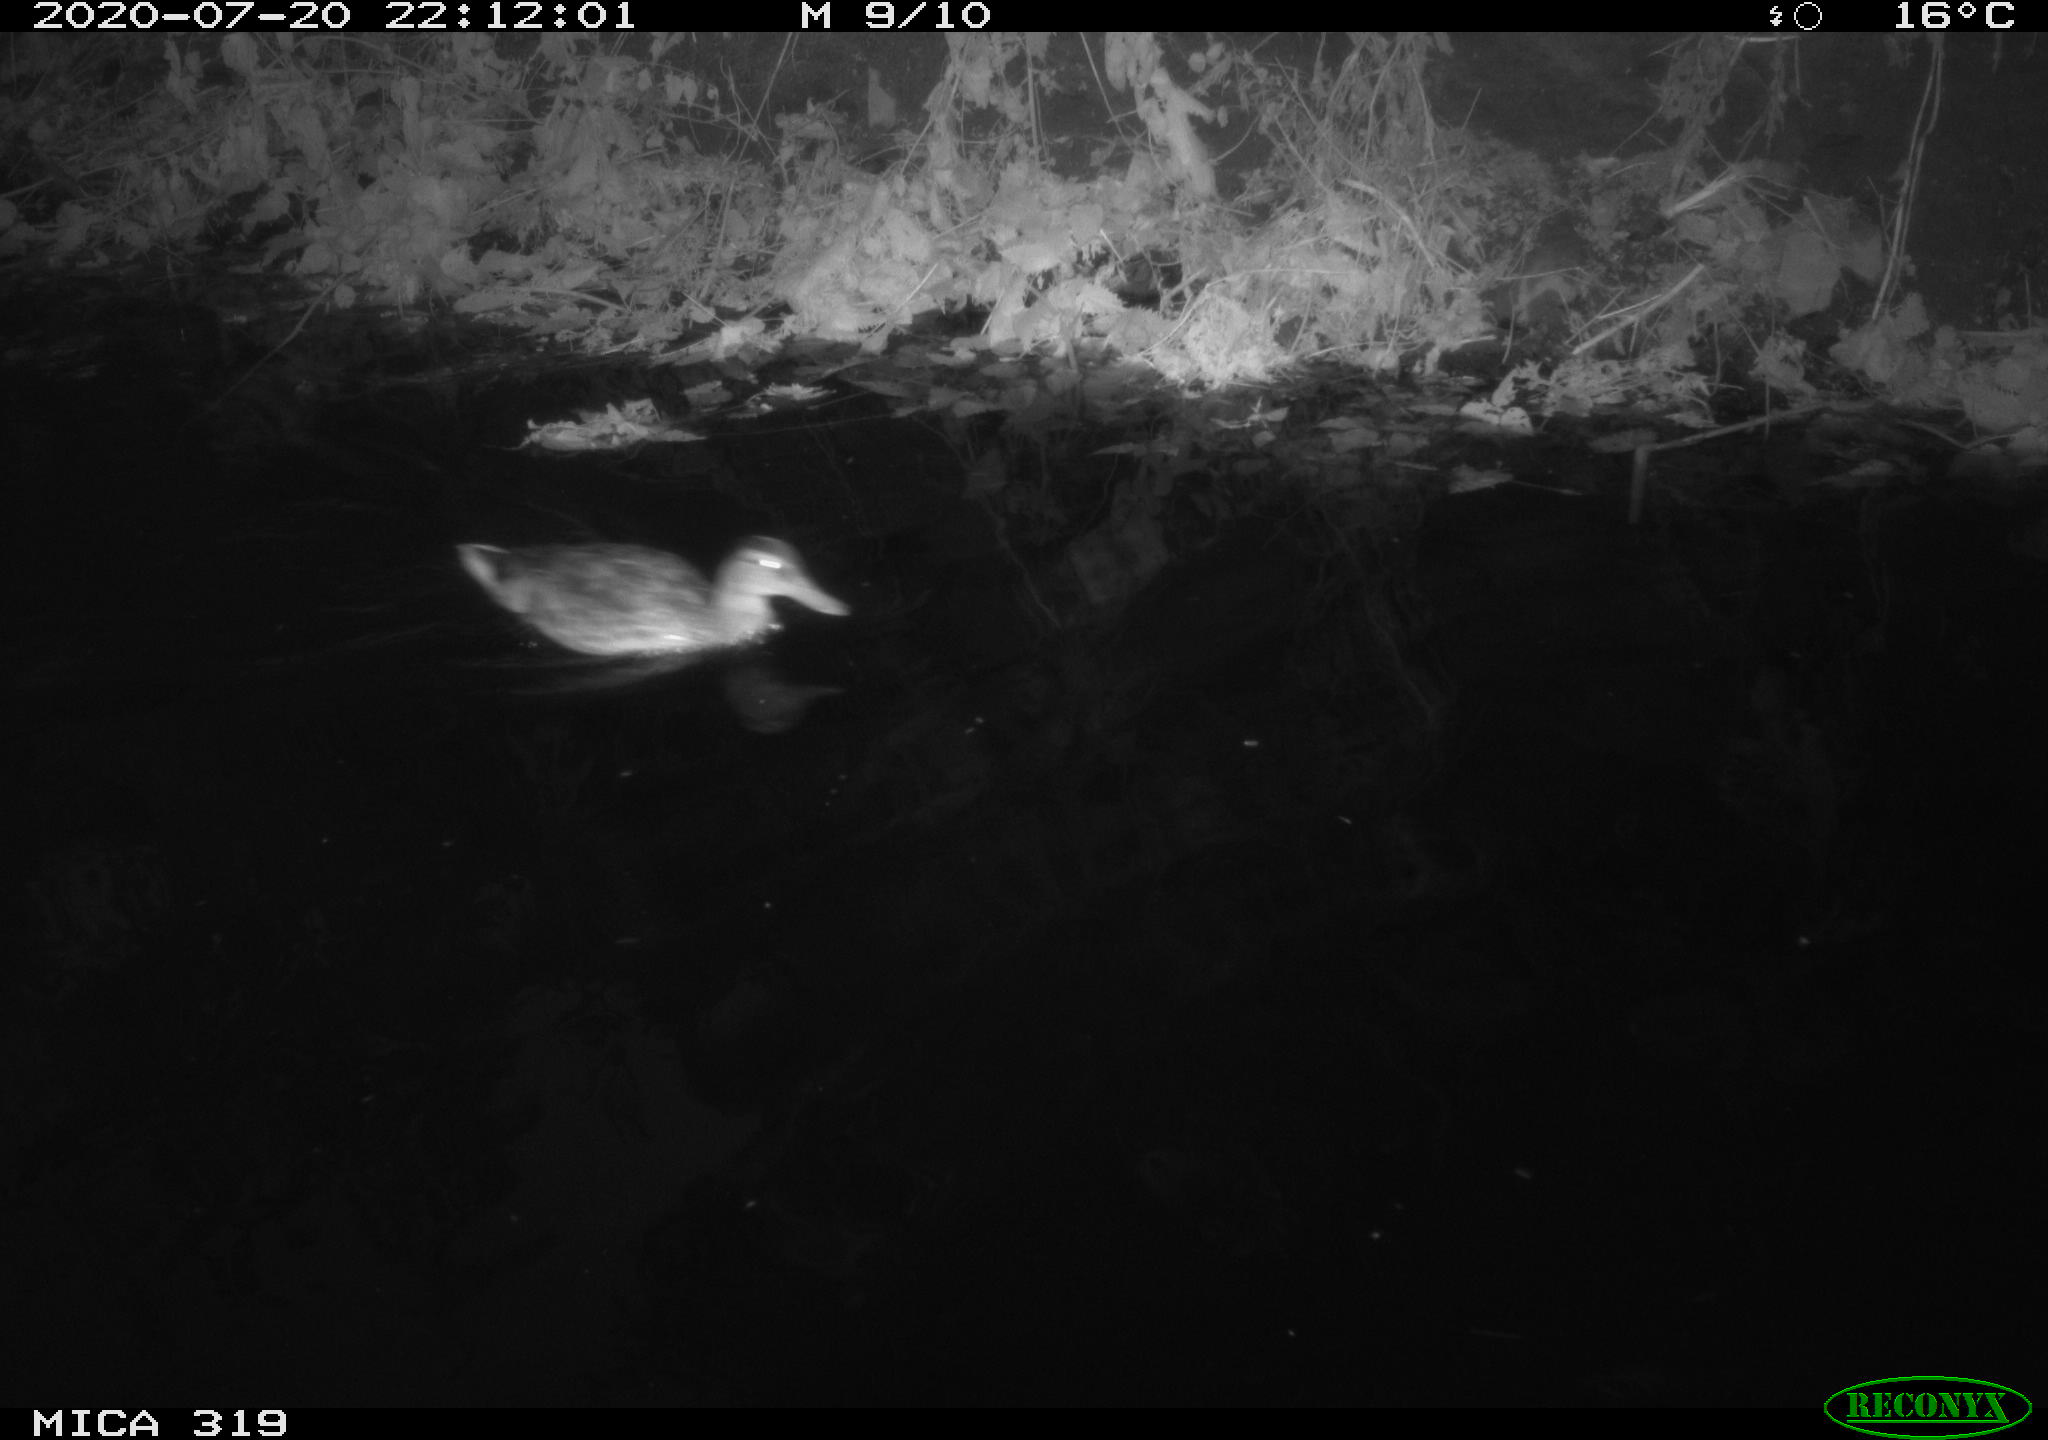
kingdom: Animalia
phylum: Chordata
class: Aves
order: Anseriformes
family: Anatidae
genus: Anas
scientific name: Anas platyrhynchos
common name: Mallard
